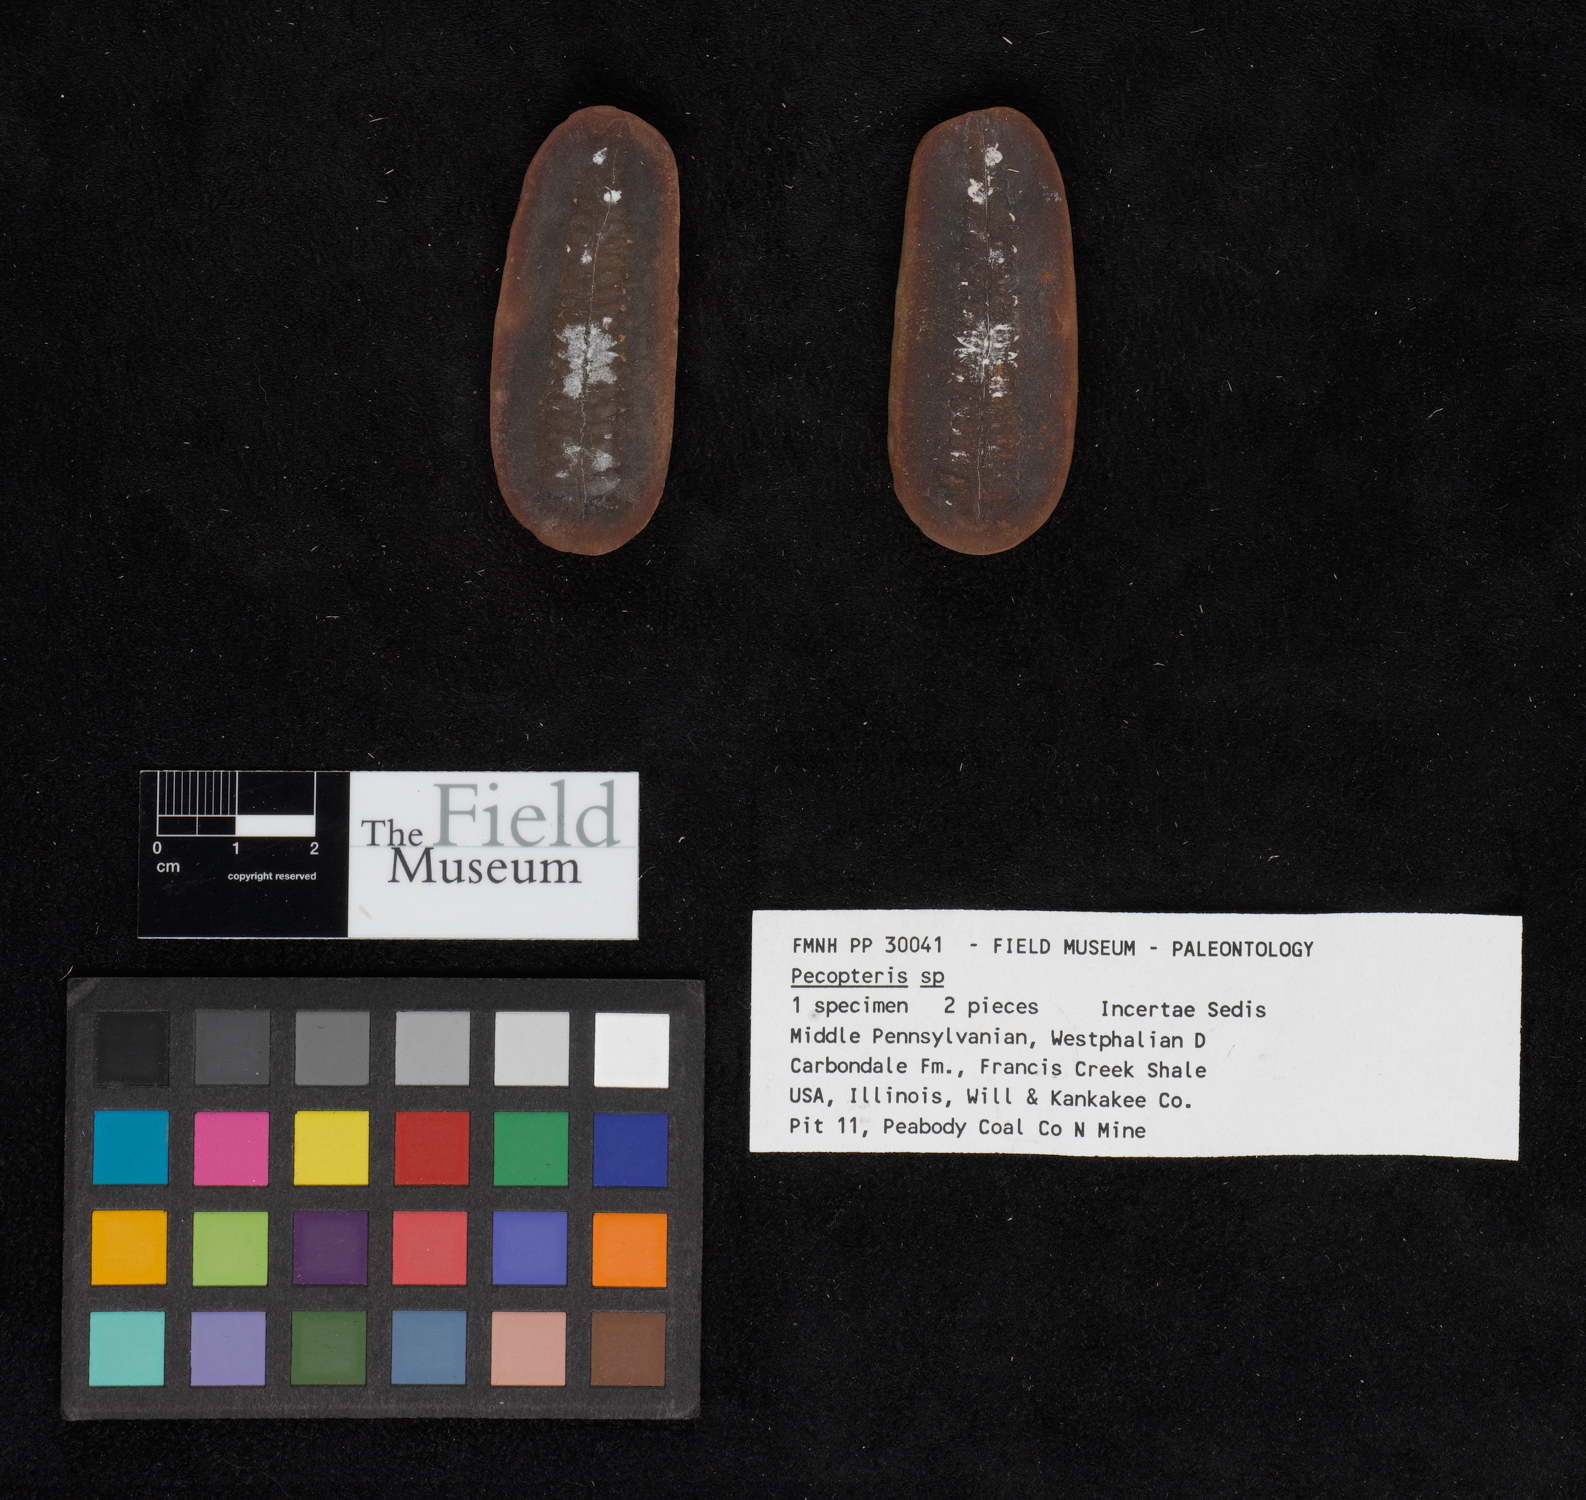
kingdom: Plantae
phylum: Tracheophyta
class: Polypodiopsida
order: Marattiales
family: Asterothecaceae
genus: Pecopteris
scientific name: Pecopteris
